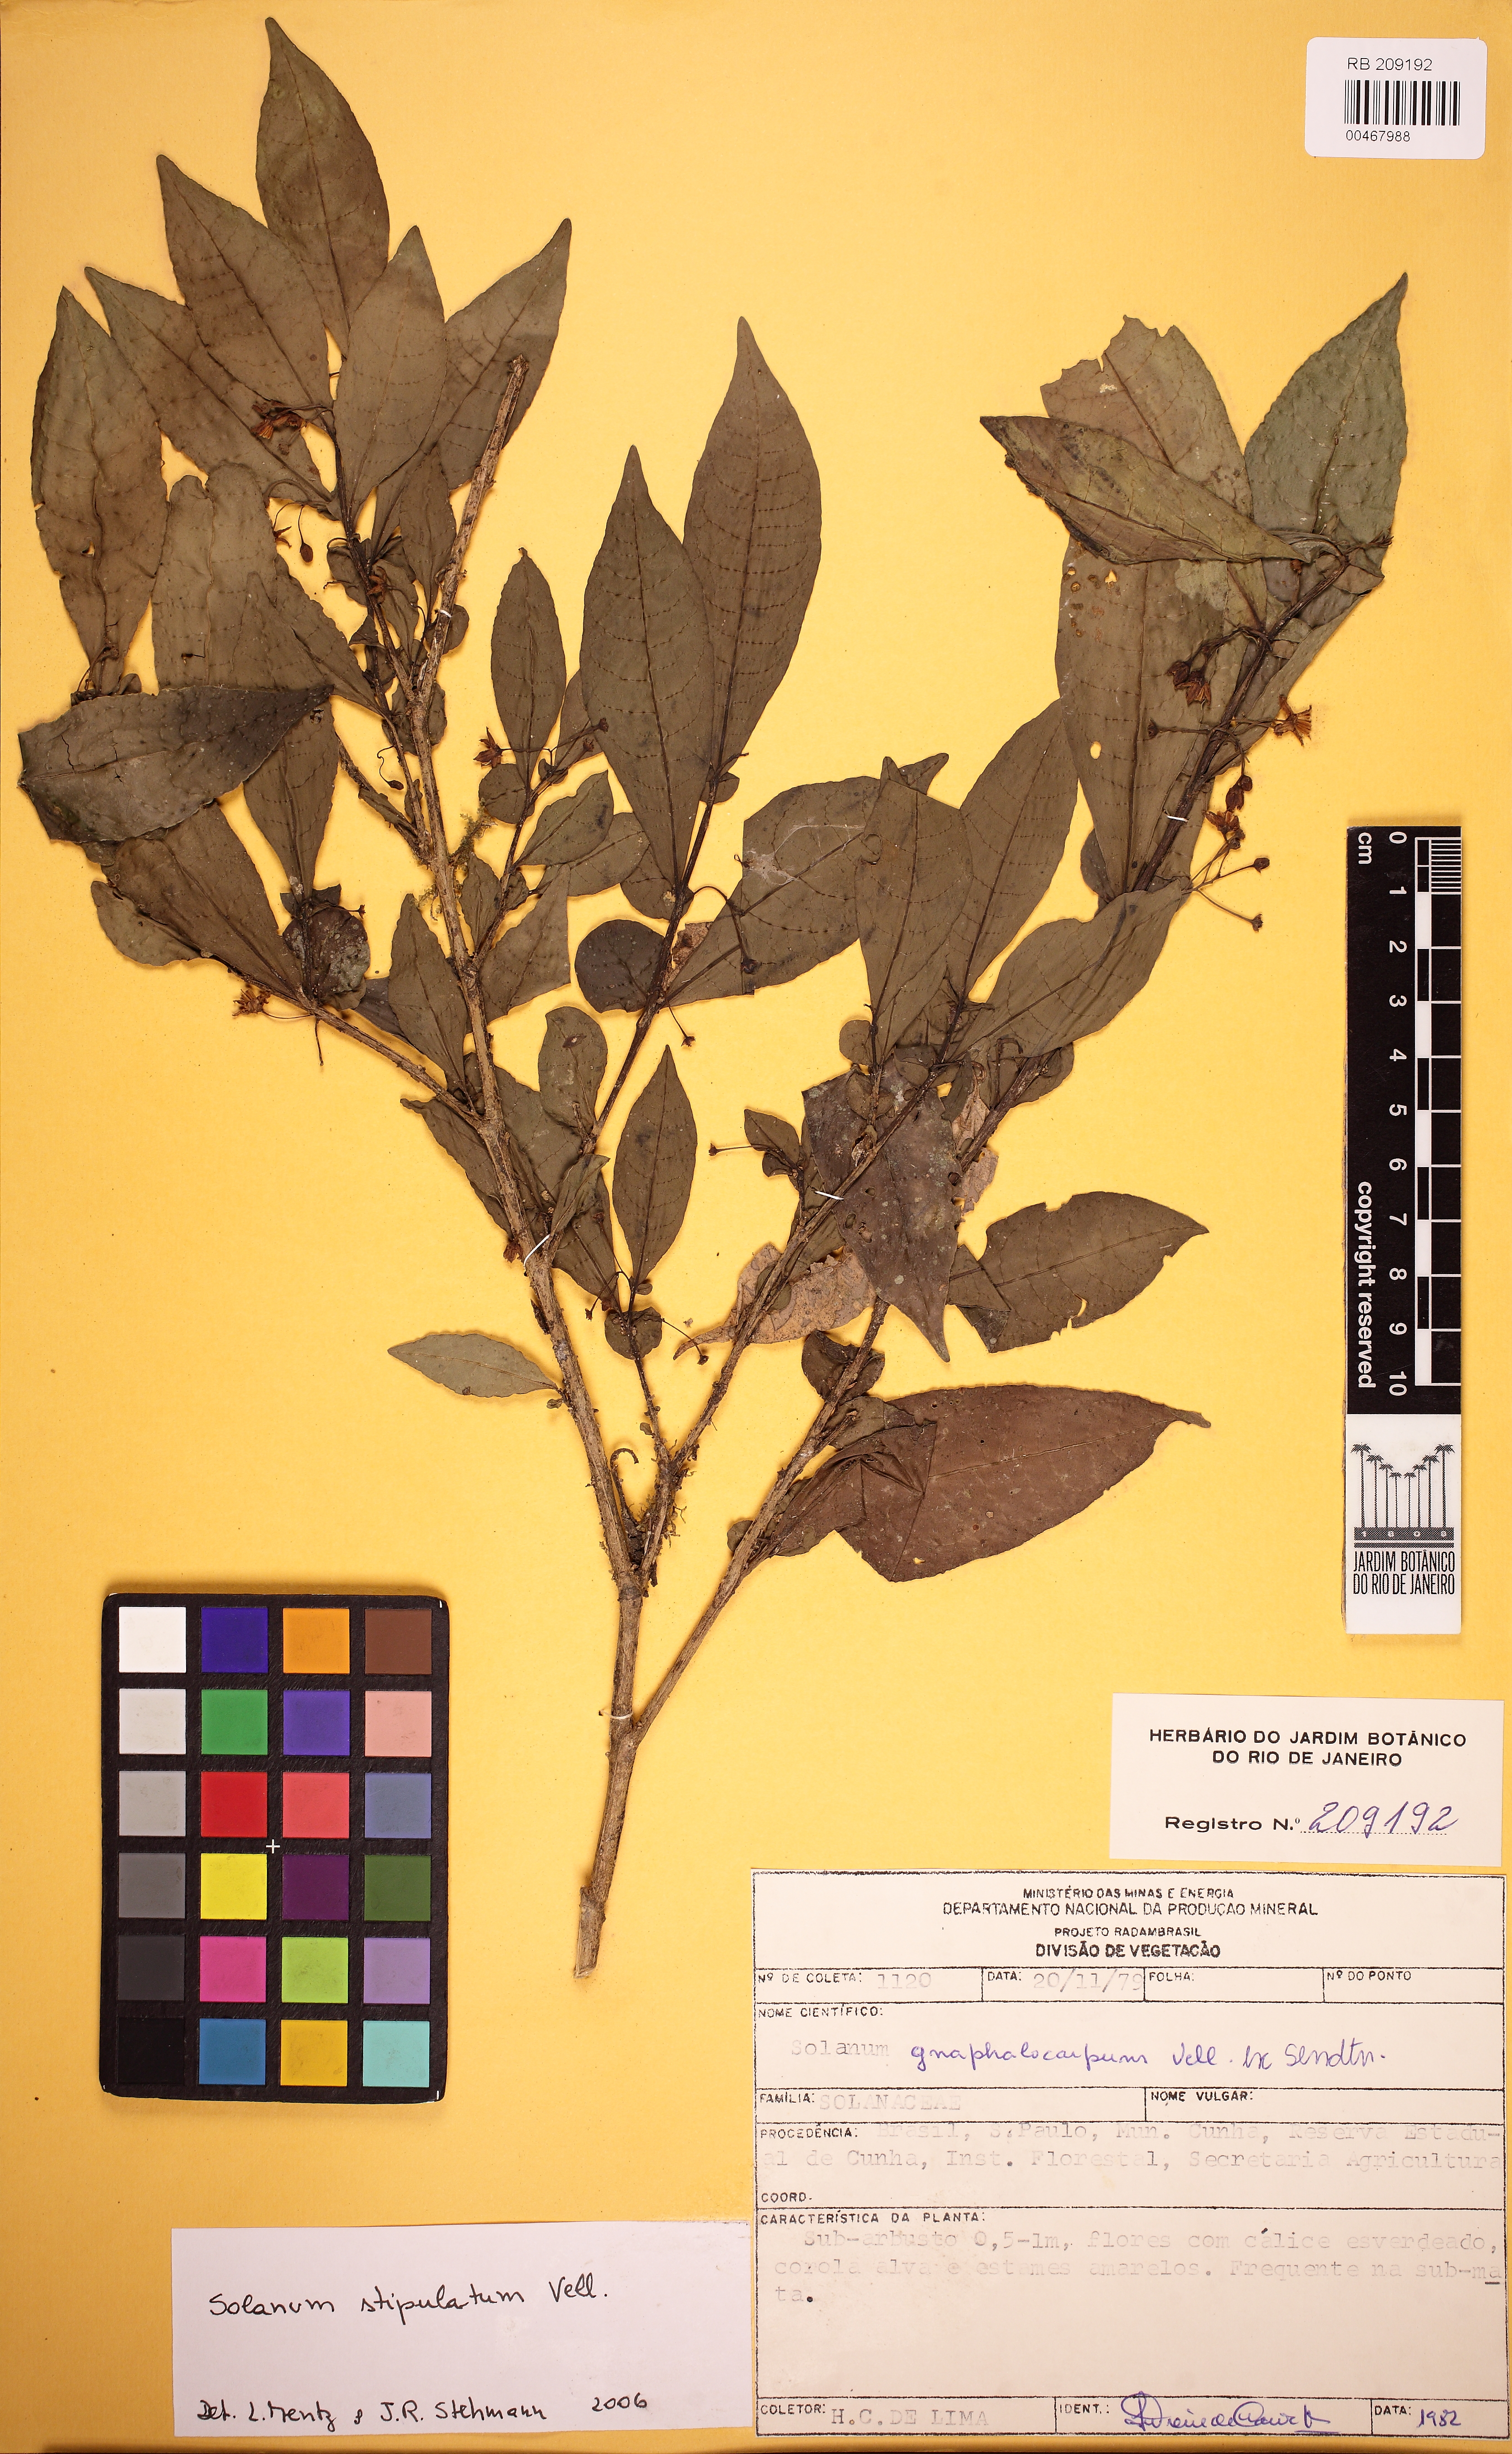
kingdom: Plantae
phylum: Tracheophyta
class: Magnoliopsida
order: Solanales
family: Solanaceae
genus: Solanum
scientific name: Solanum stipulatum
